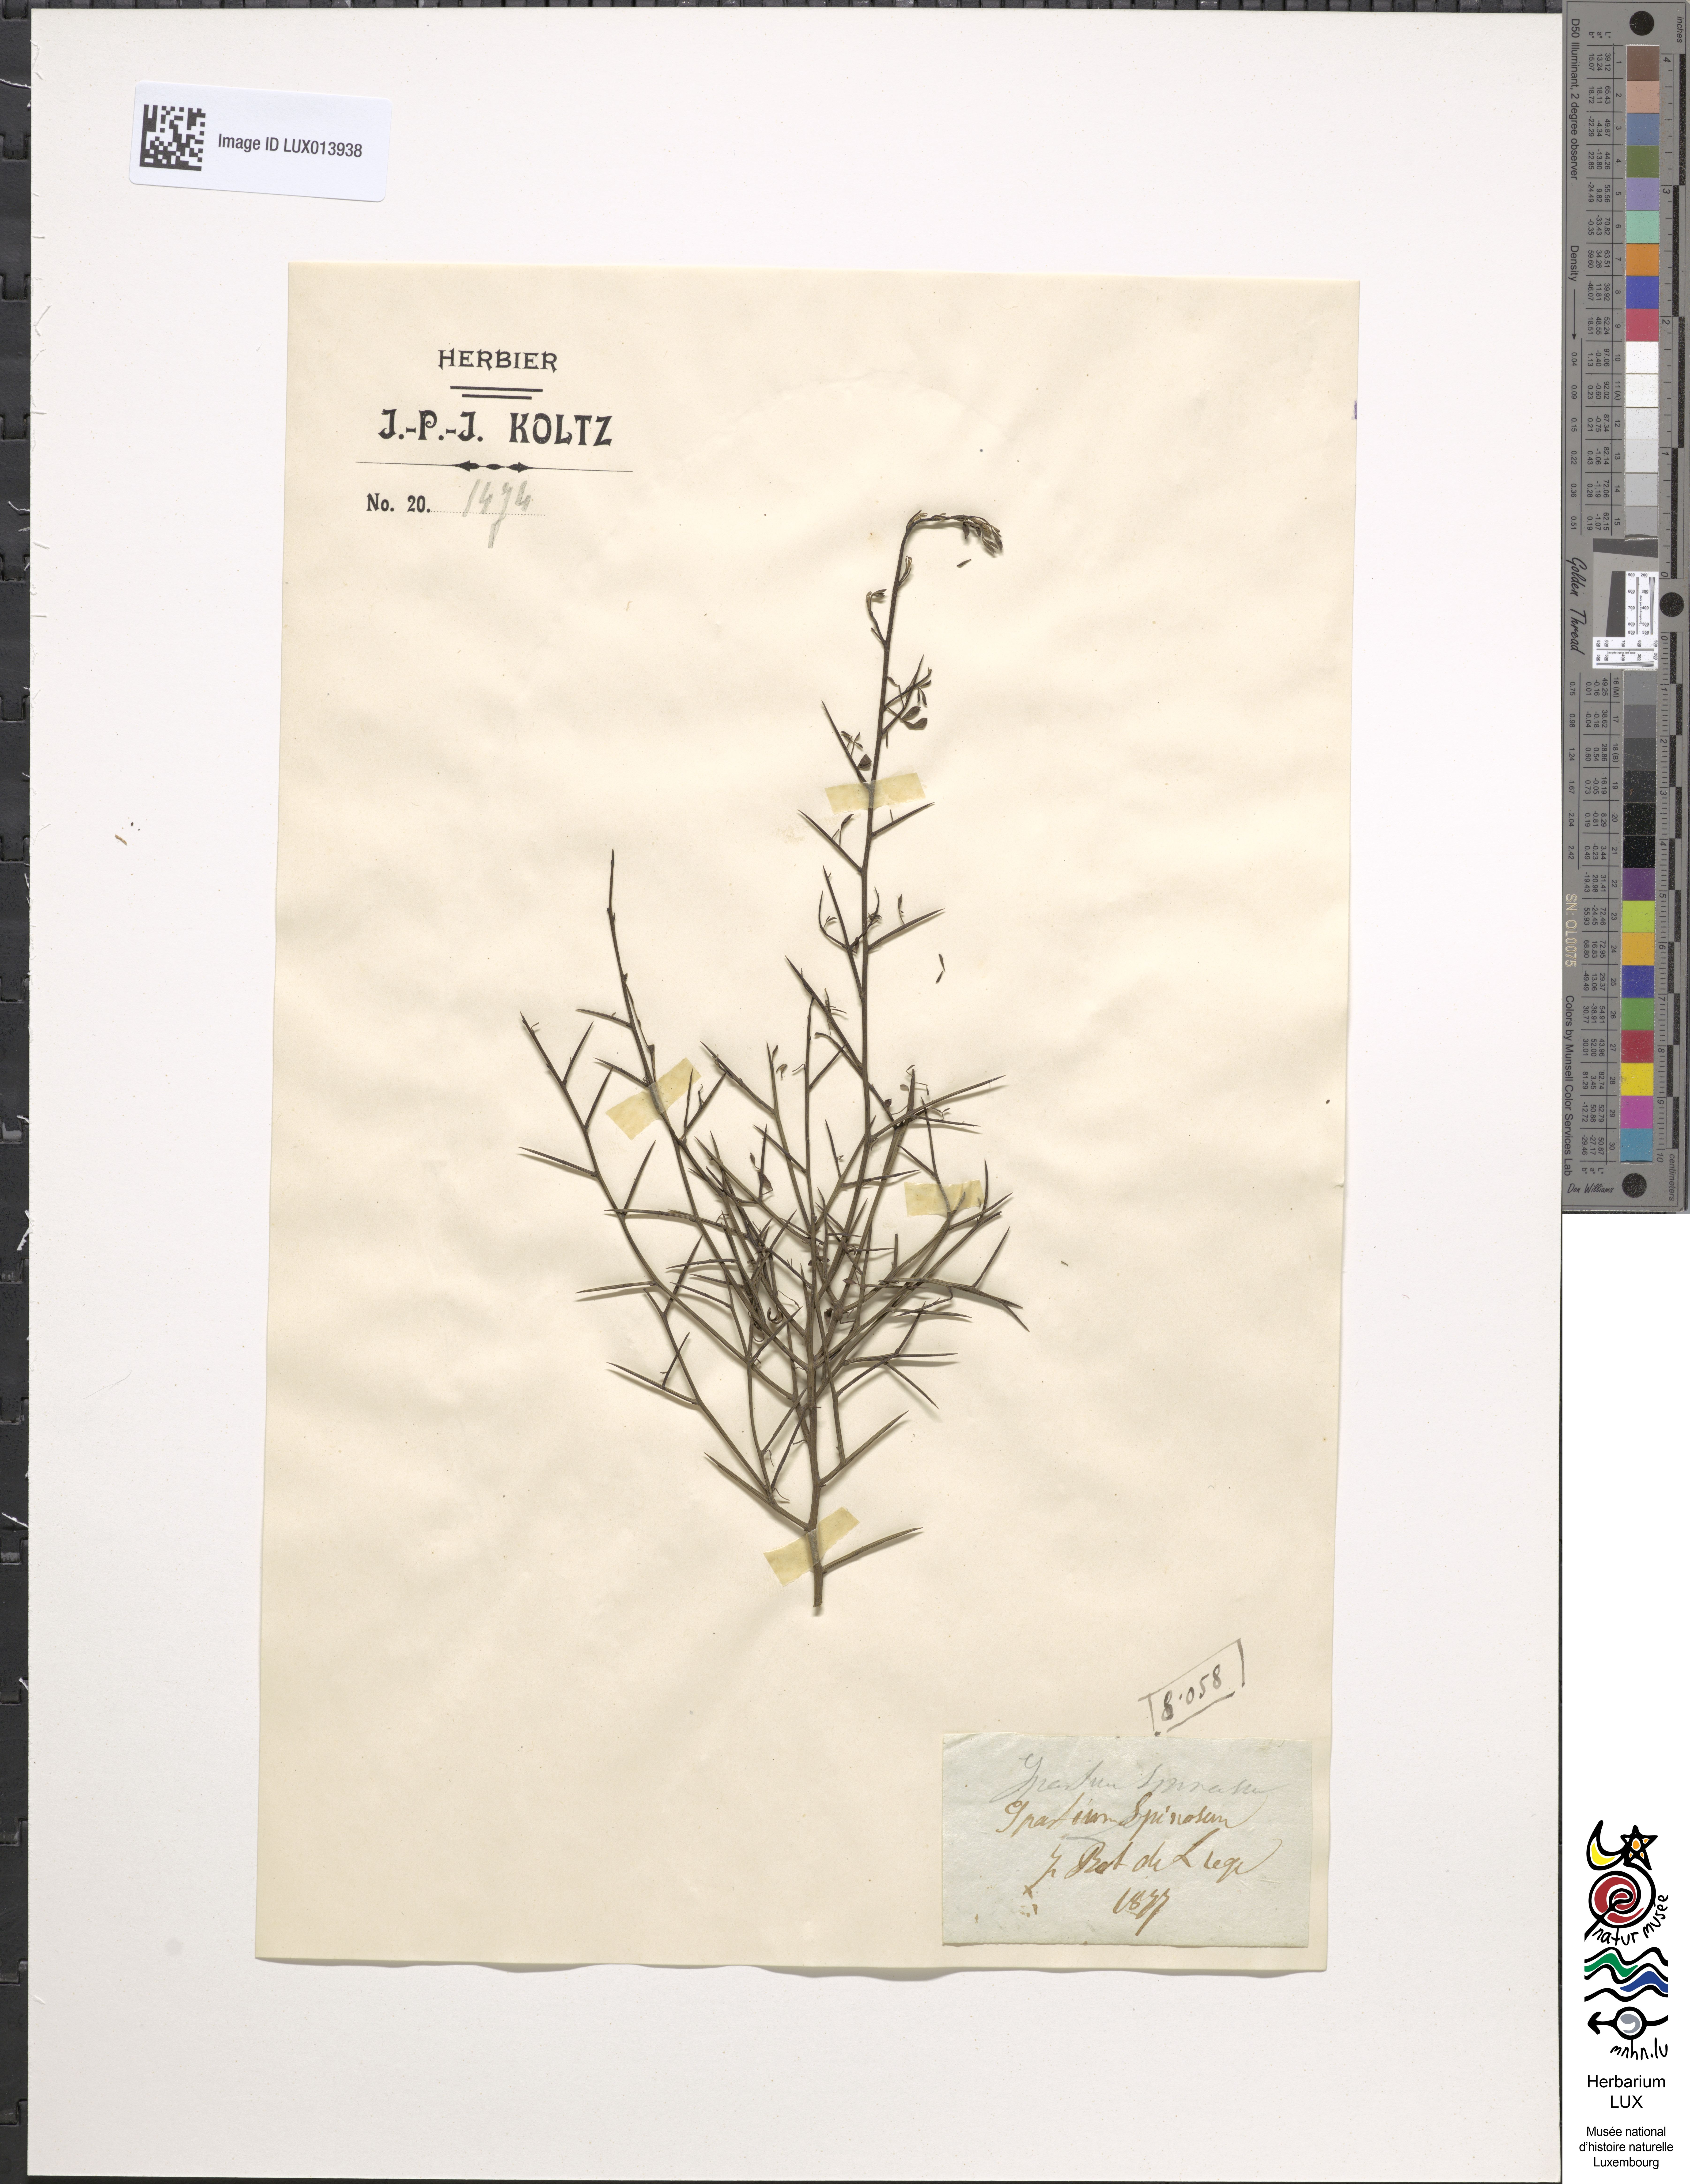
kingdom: Plantae
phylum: Tracheophyta
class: Magnoliopsida
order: Fabales
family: Fabaceae
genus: Calicotome
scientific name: Calicotome spinosa
